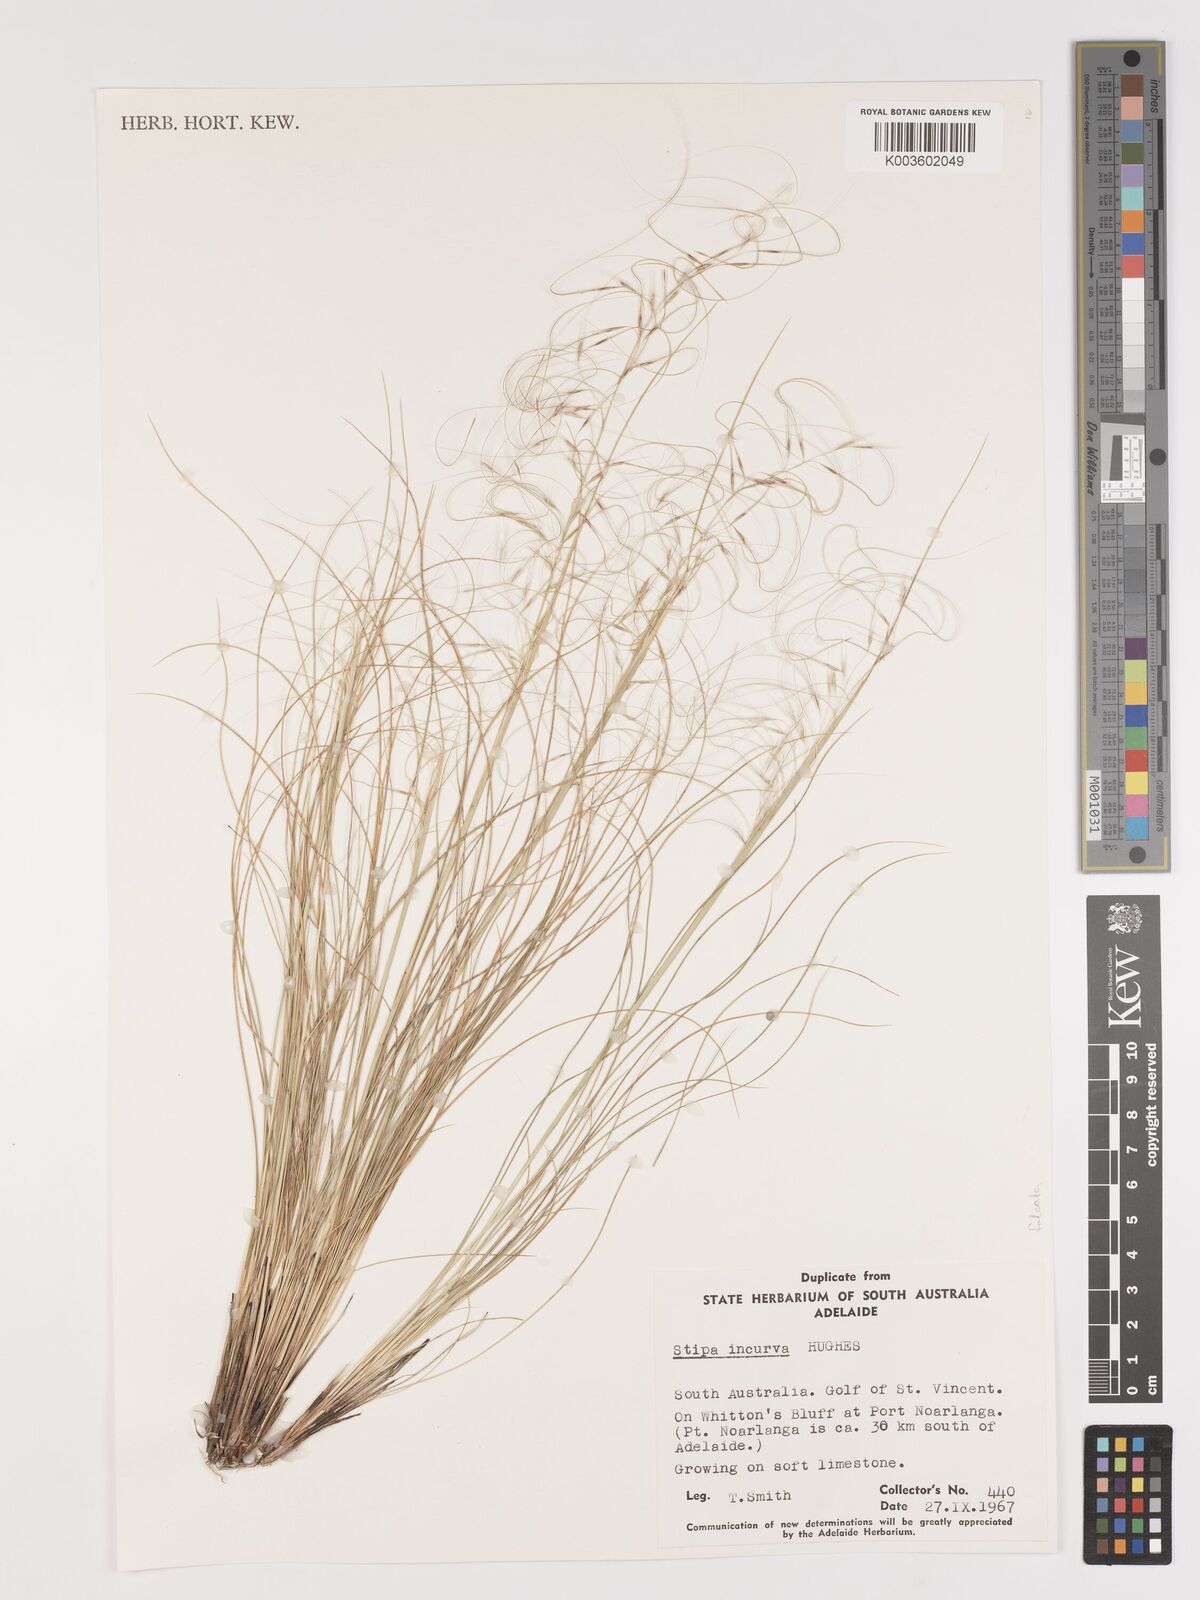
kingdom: Plantae
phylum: Tracheophyta
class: Liliopsida
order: Poales
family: Poaceae
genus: Austrostipa
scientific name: Austrostipa scabra
